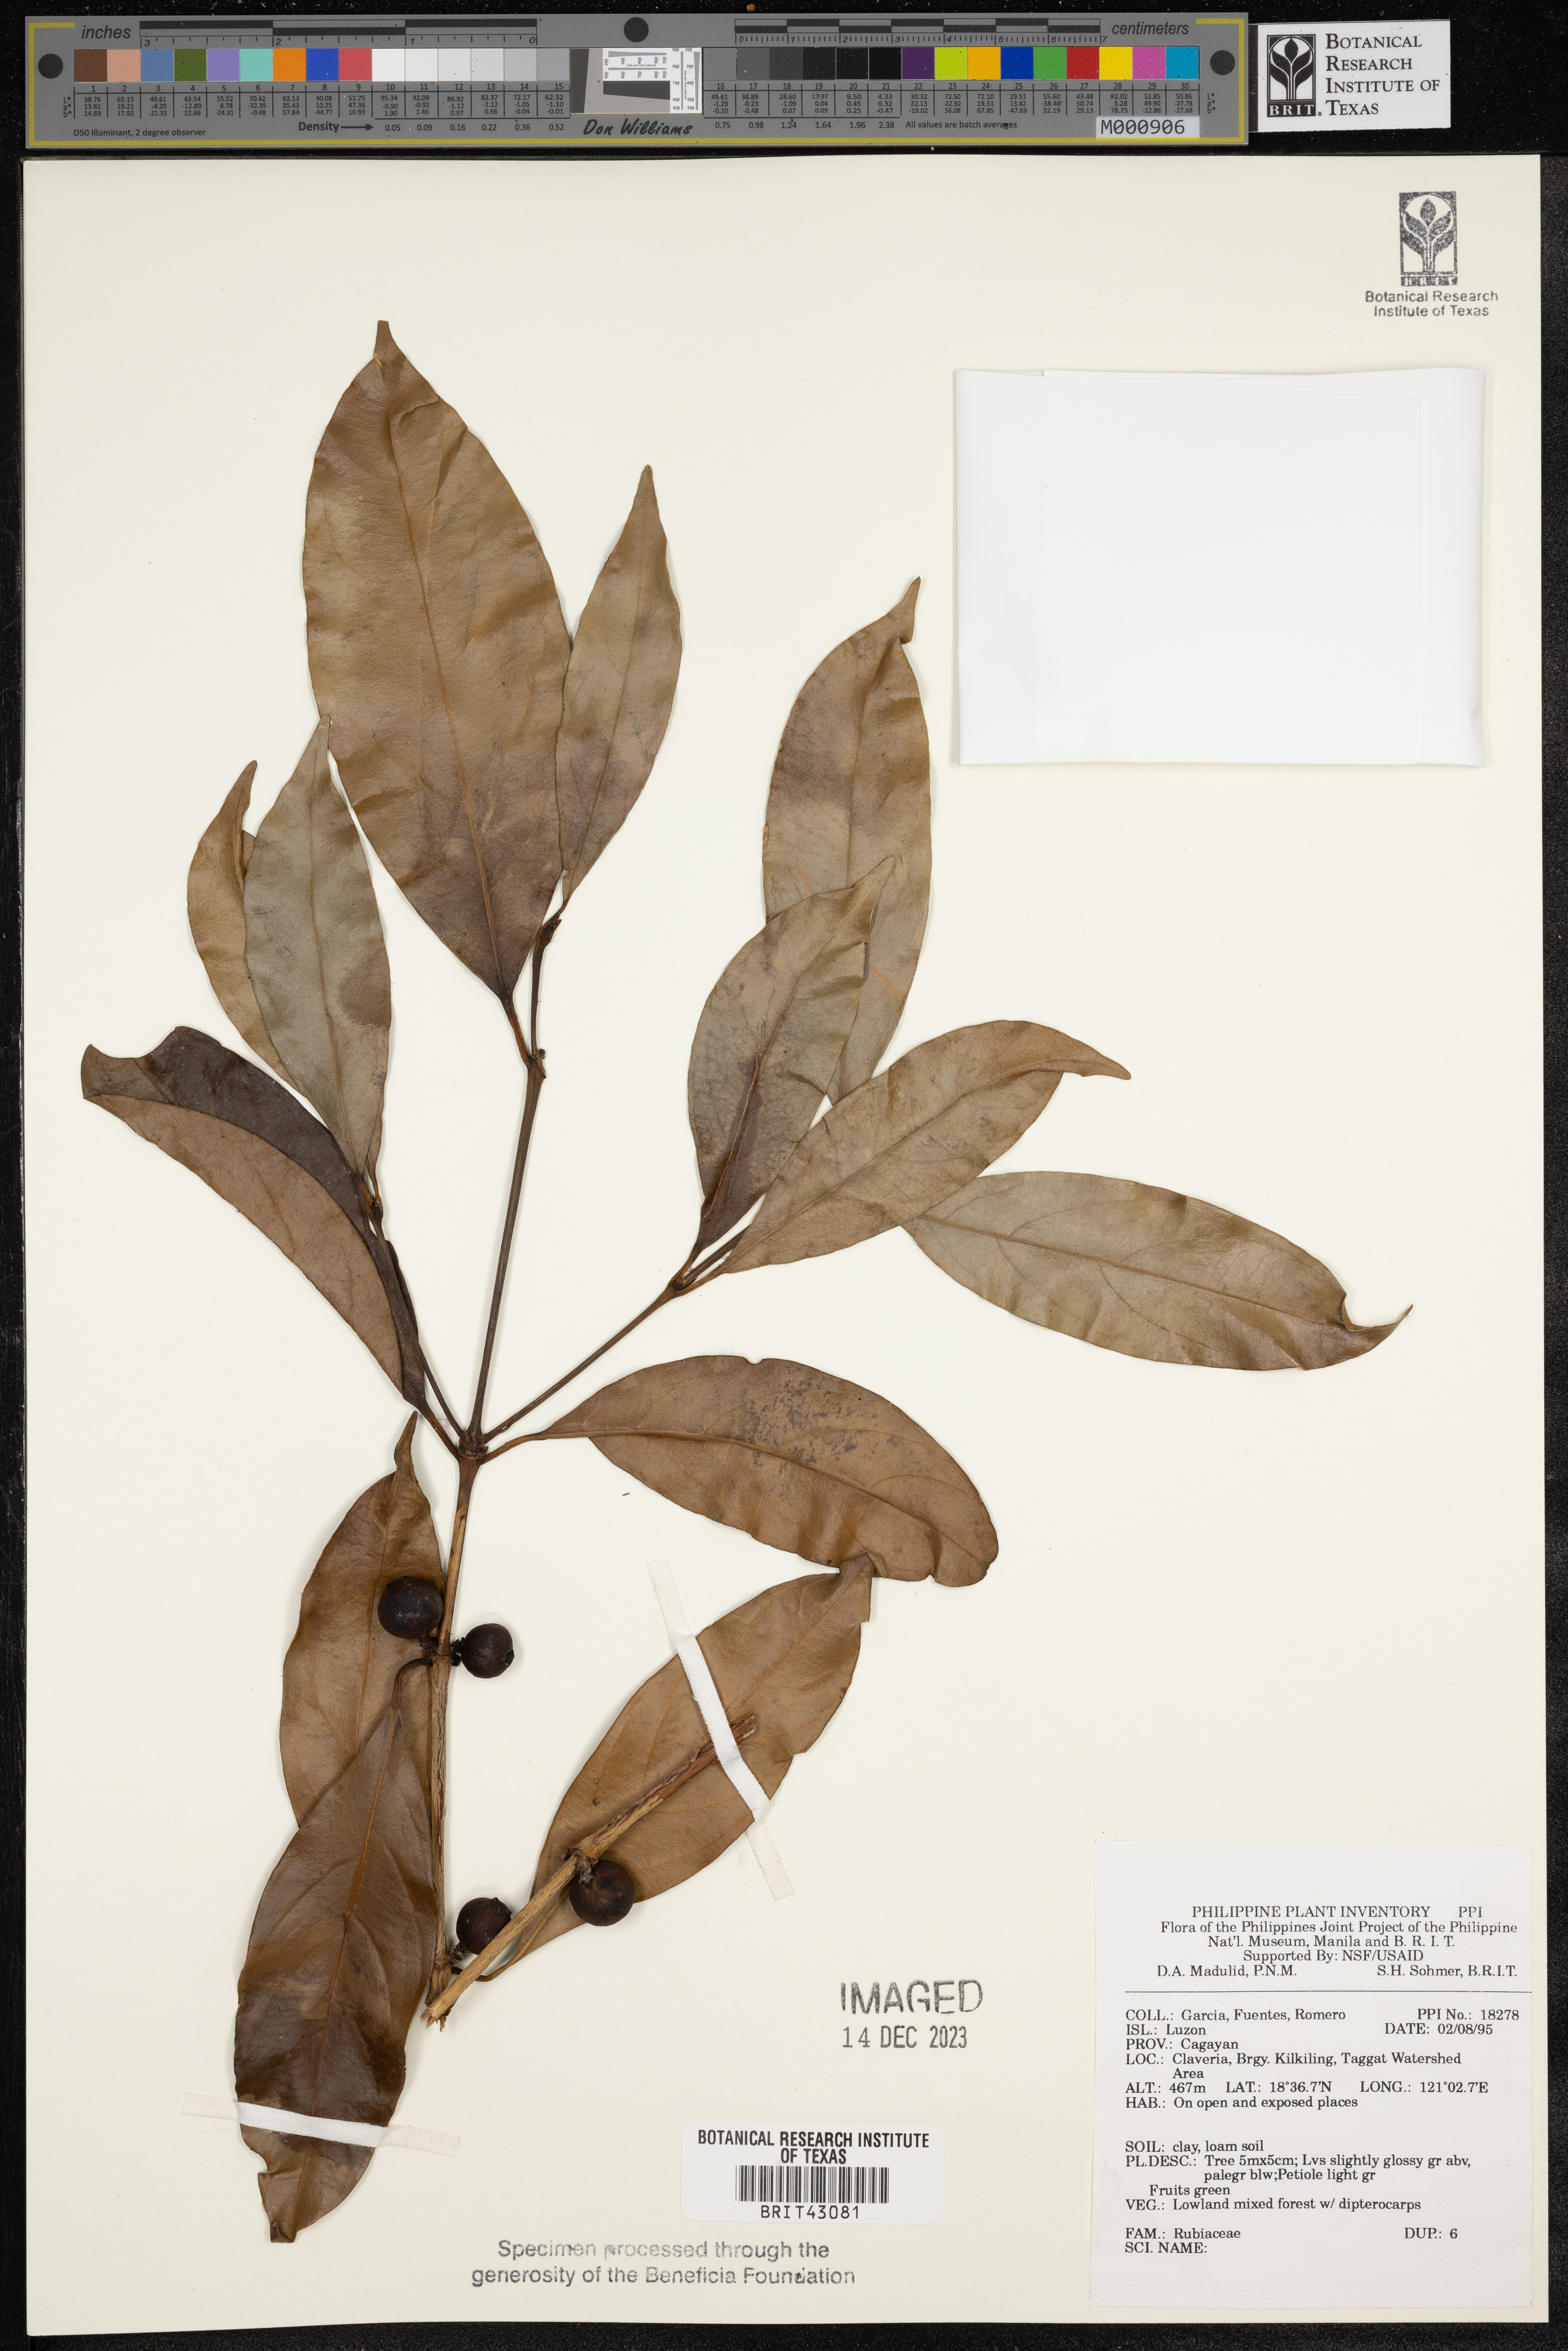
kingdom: Plantae
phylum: Tracheophyta
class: Magnoliopsida
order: Gentianales
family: Rubiaceae
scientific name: Rubiaceae
